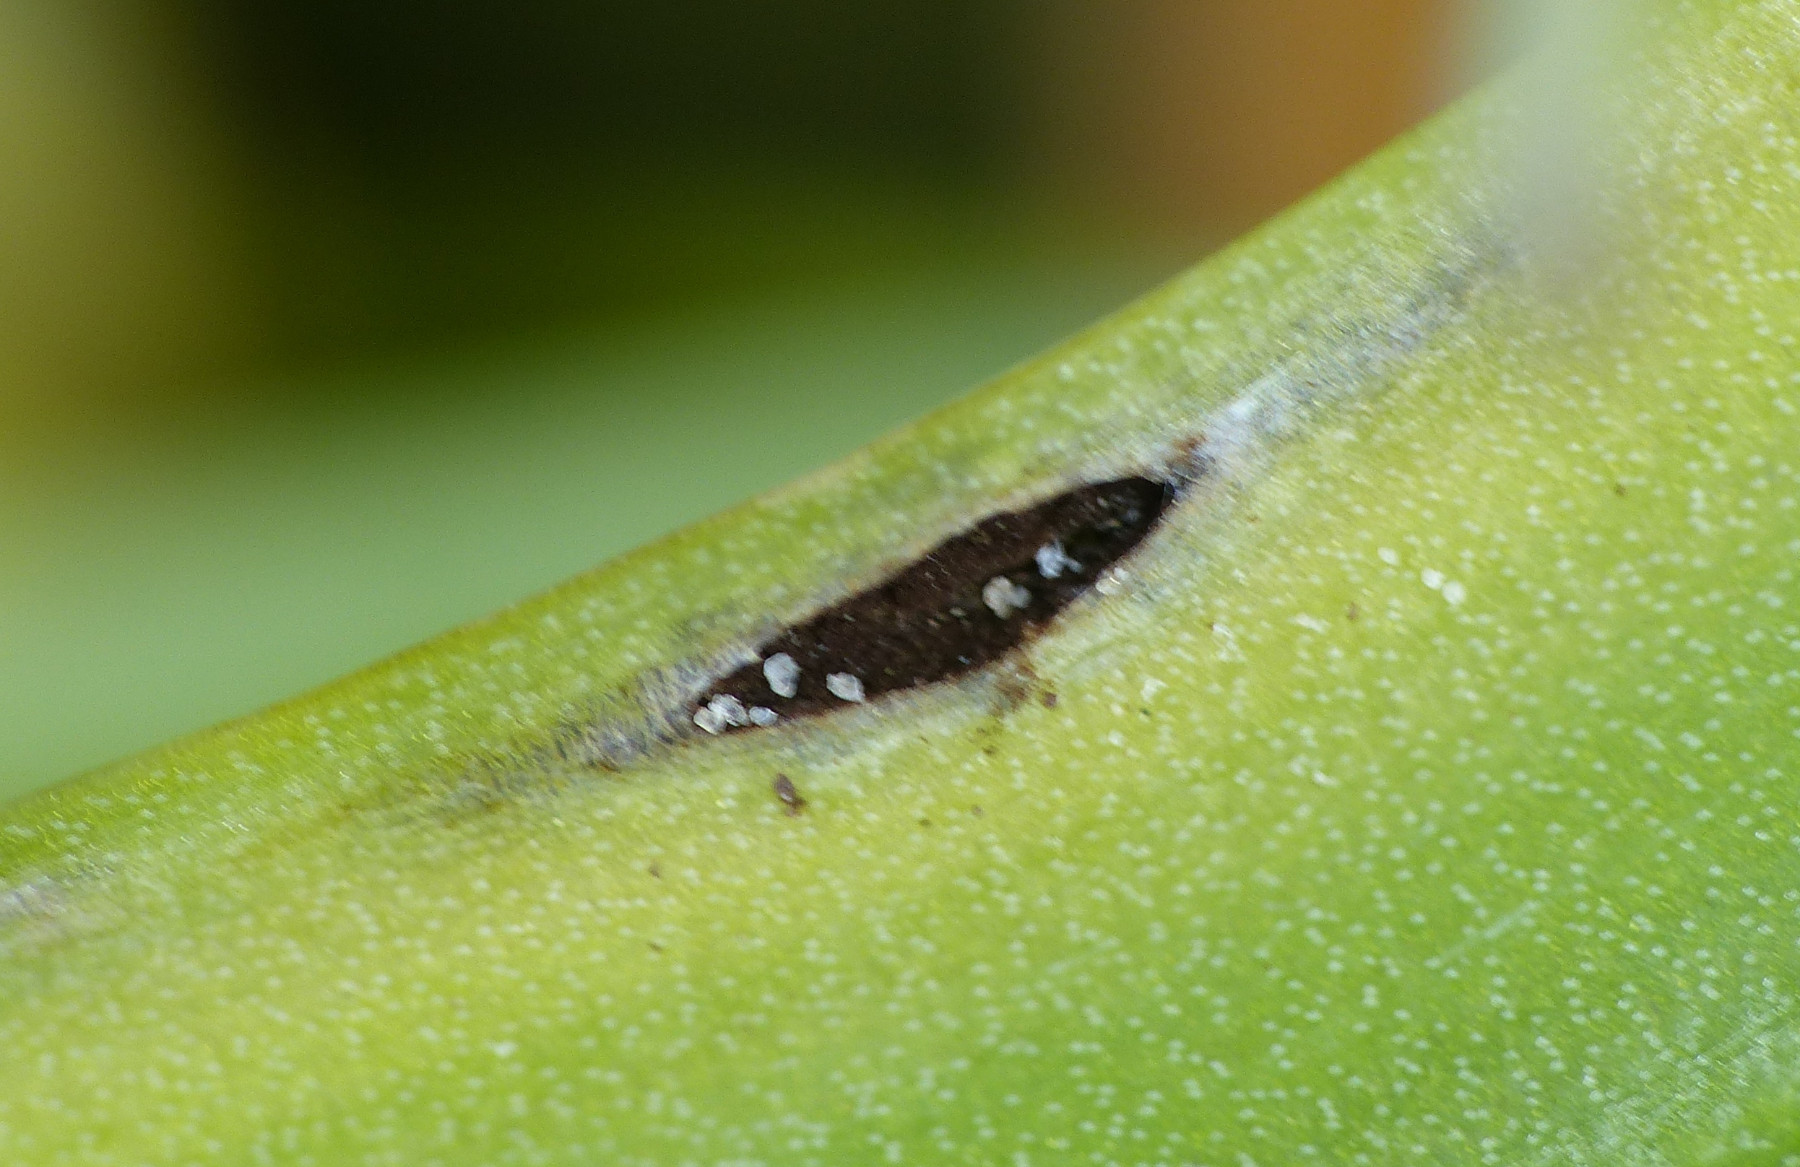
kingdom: Fungi
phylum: Basidiomycota
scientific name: Basidiomycota
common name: basidiesvampe
